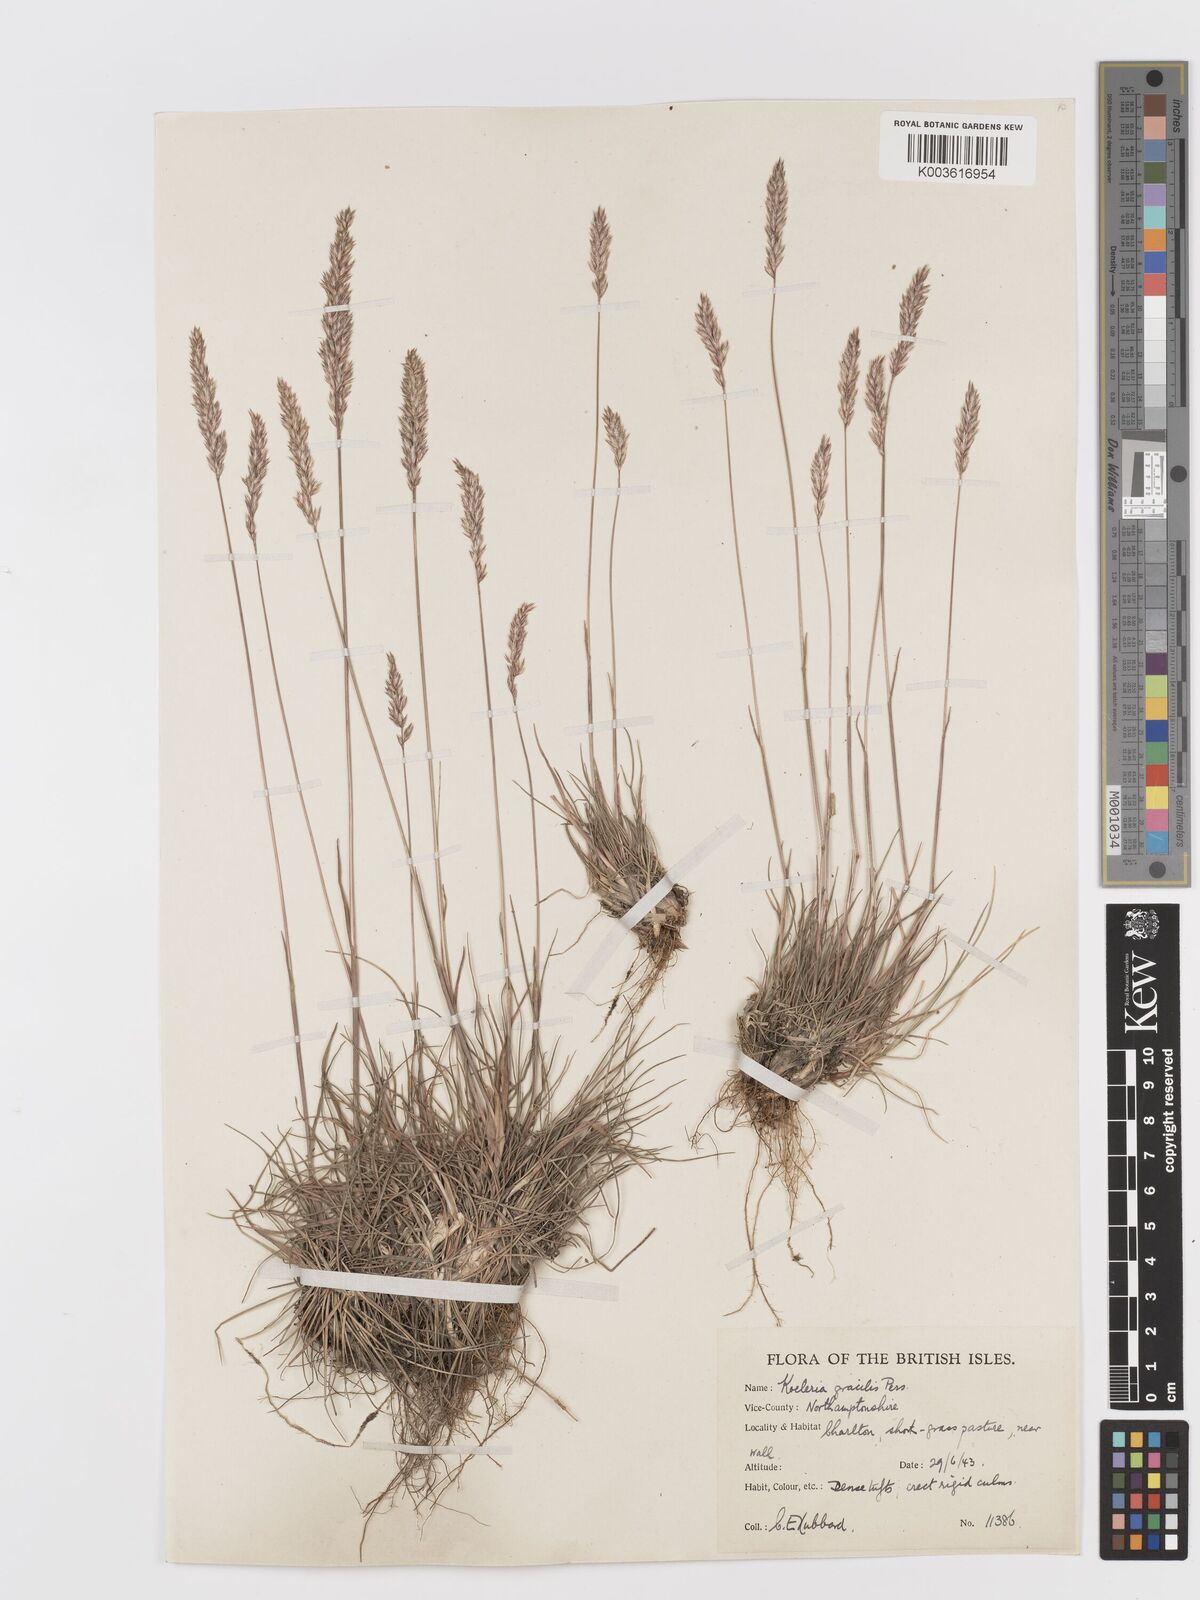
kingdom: Plantae
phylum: Tracheophyta
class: Liliopsida
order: Poales
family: Poaceae
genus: Koeleria
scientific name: Koeleria macrantha
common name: Crested hair-grass
